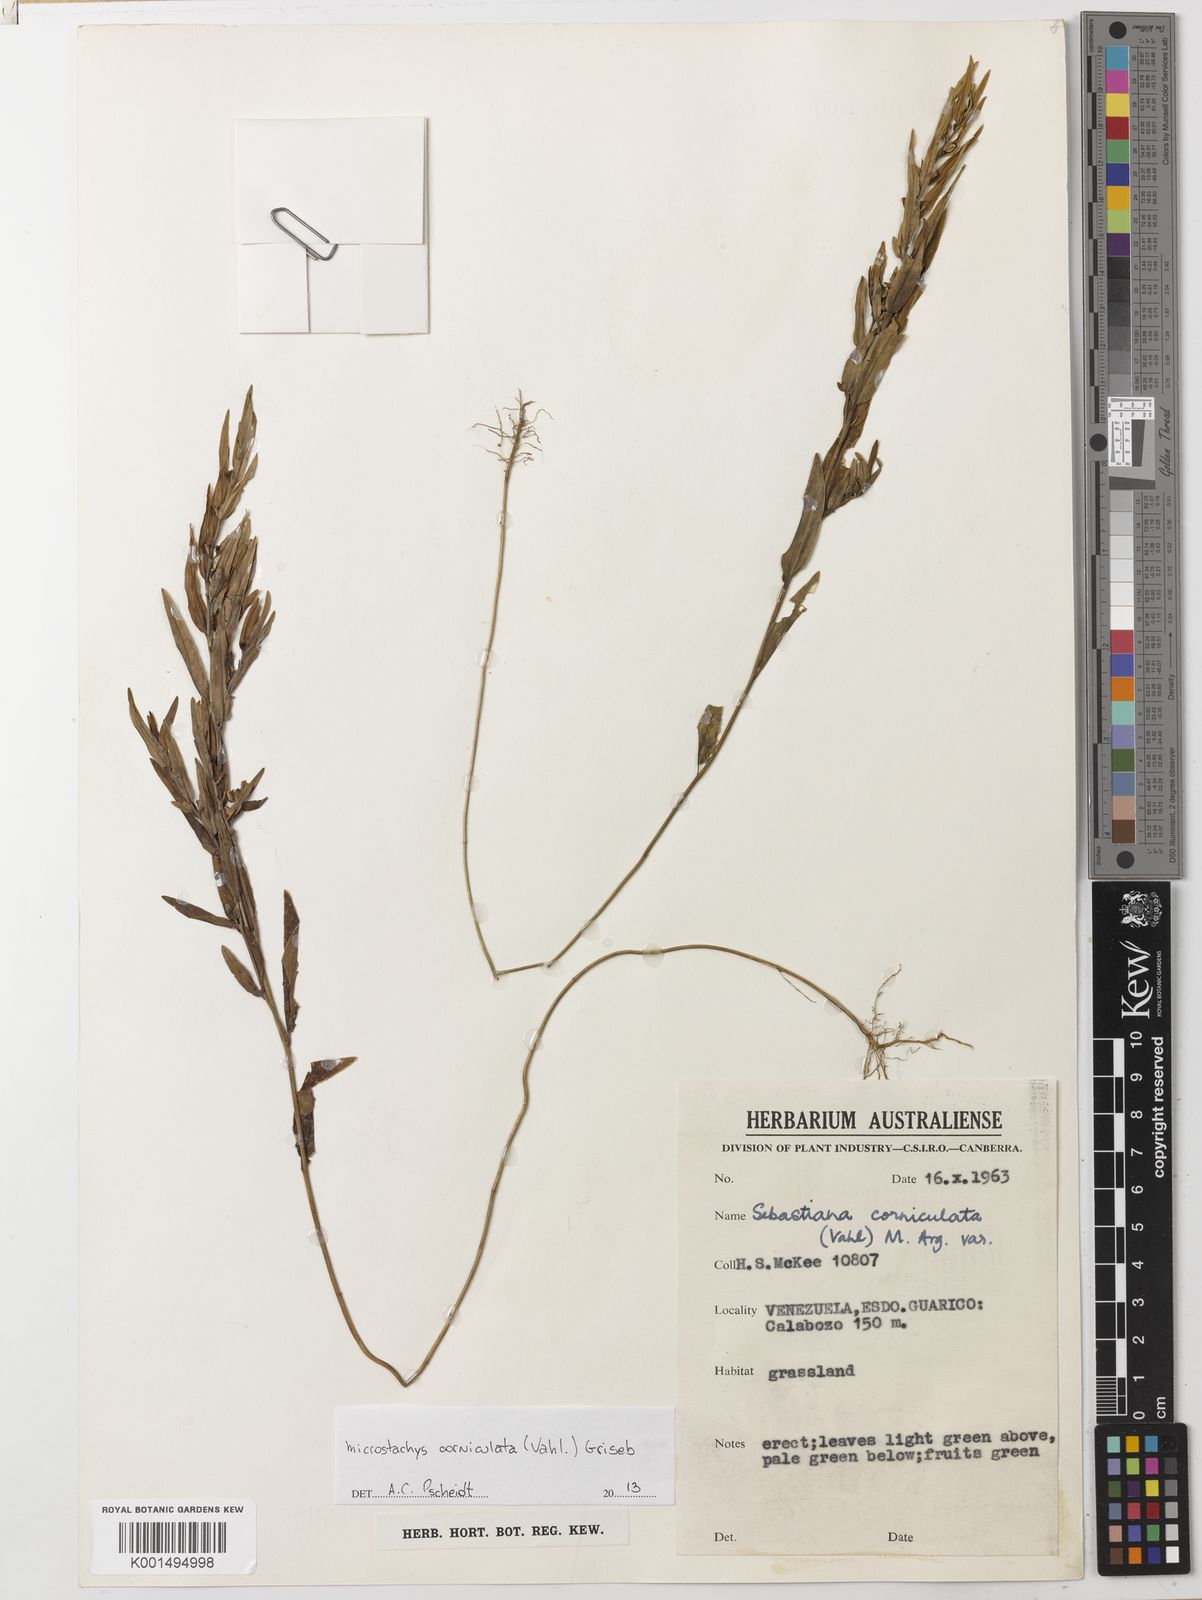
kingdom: Plantae
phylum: Tracheophyta
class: Magnoliopsida
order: Malpighiales
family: Euphorbiaceae
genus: Microstachys
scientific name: Microstachys corniculata
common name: Hato tejas
